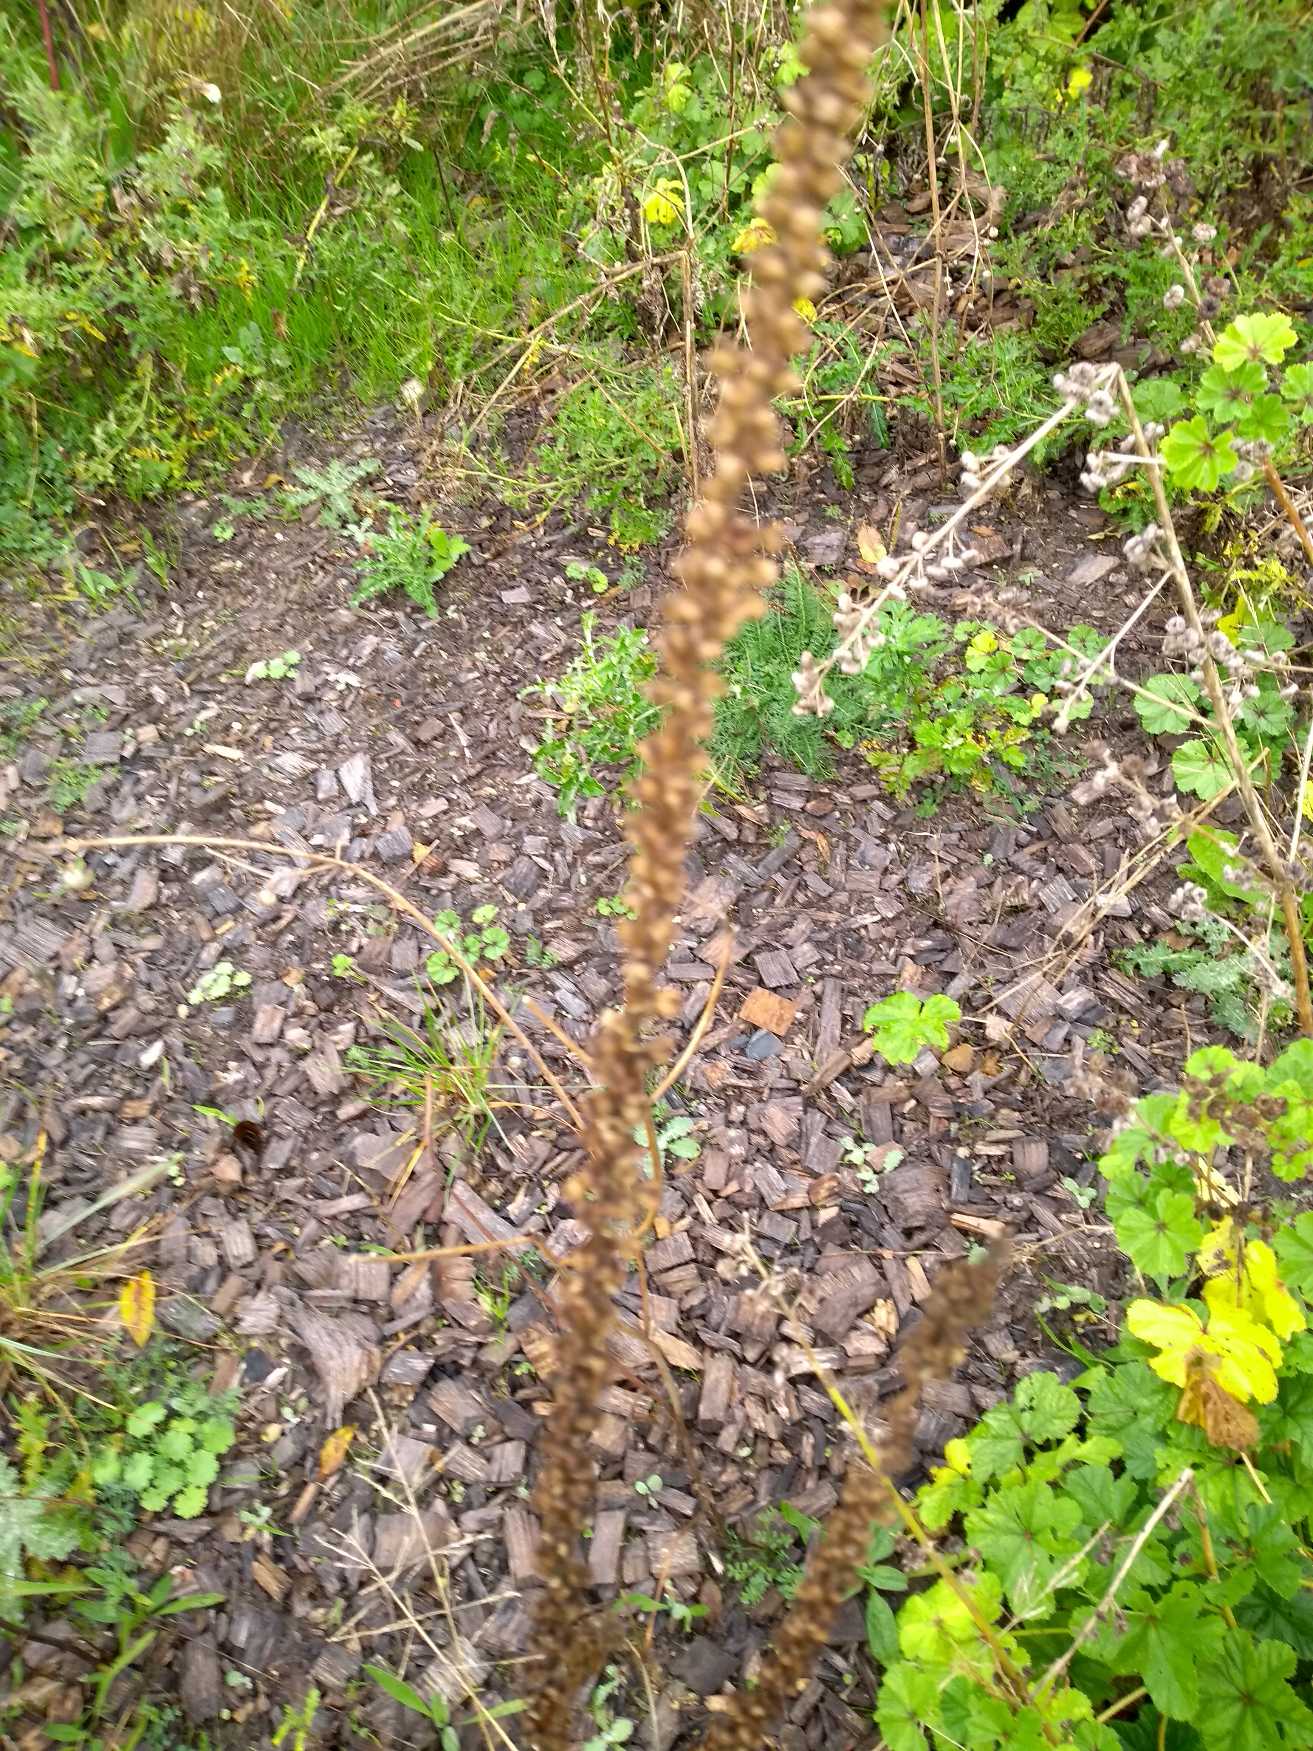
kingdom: Plantae
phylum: Tracheophyta
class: Magnoliopsida
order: Brassicales
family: Resedaceae
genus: Reseda
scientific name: Reseda luteola
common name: Farve-reseda
